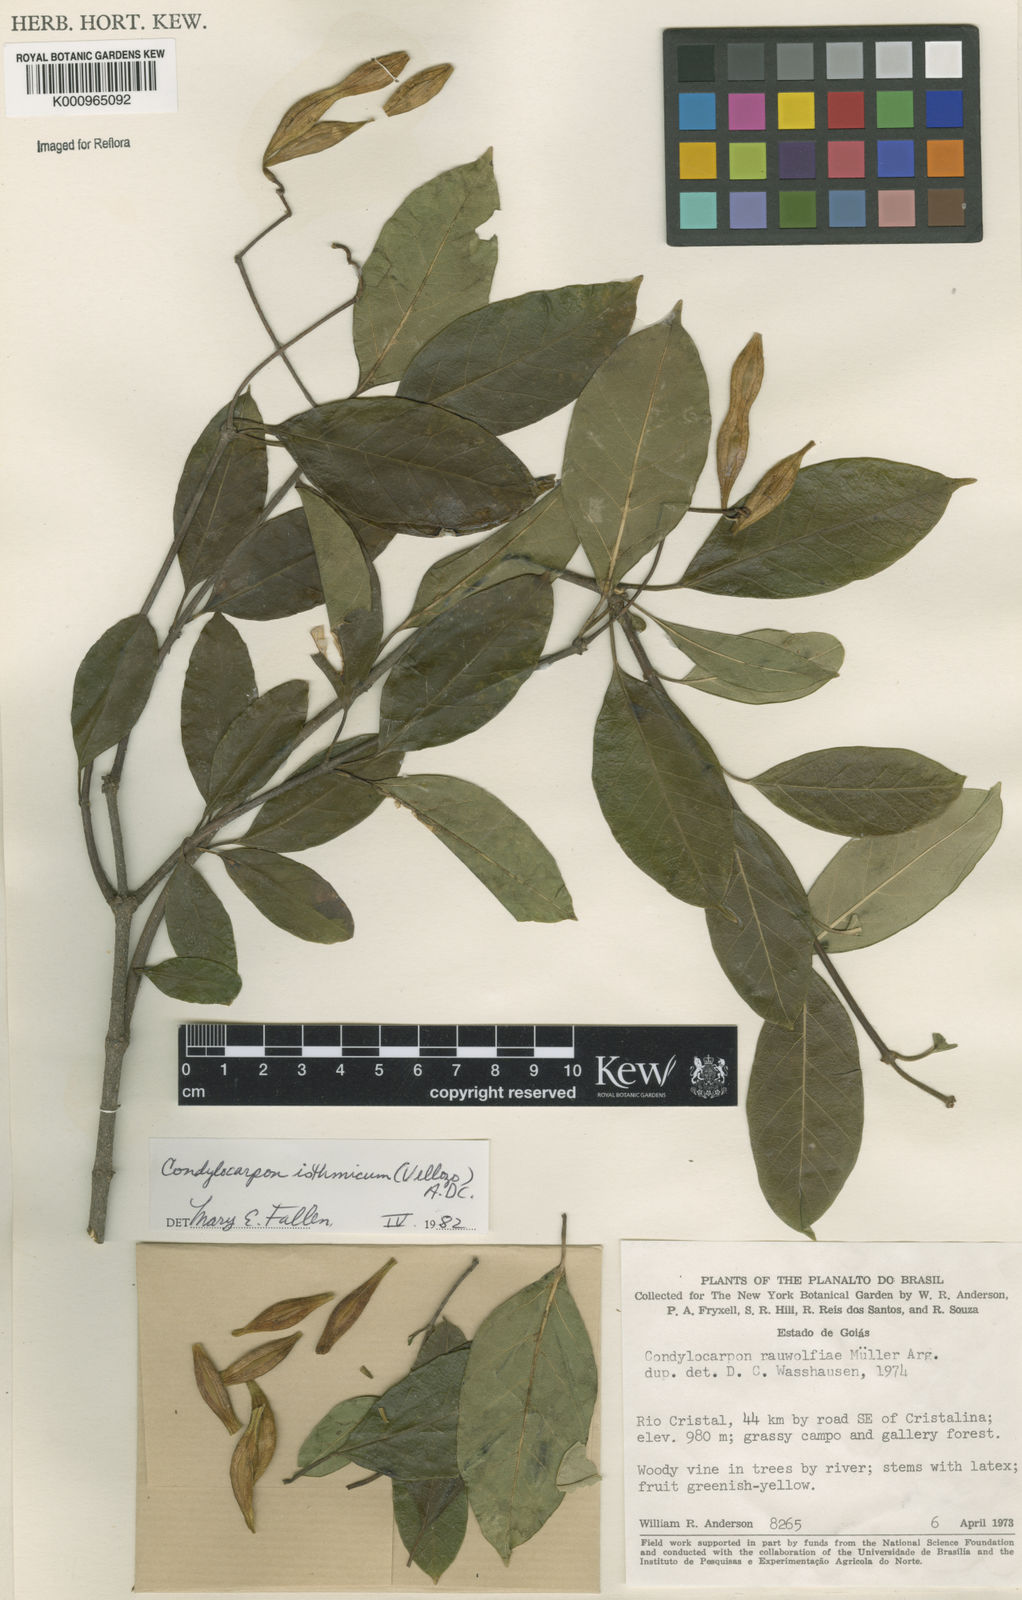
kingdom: Plantae
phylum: Tracheophyta
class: Magnoliopsida
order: Gentianales
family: Apocynaceae
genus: Condylocarpon
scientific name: Condylocarpon isthmicum
